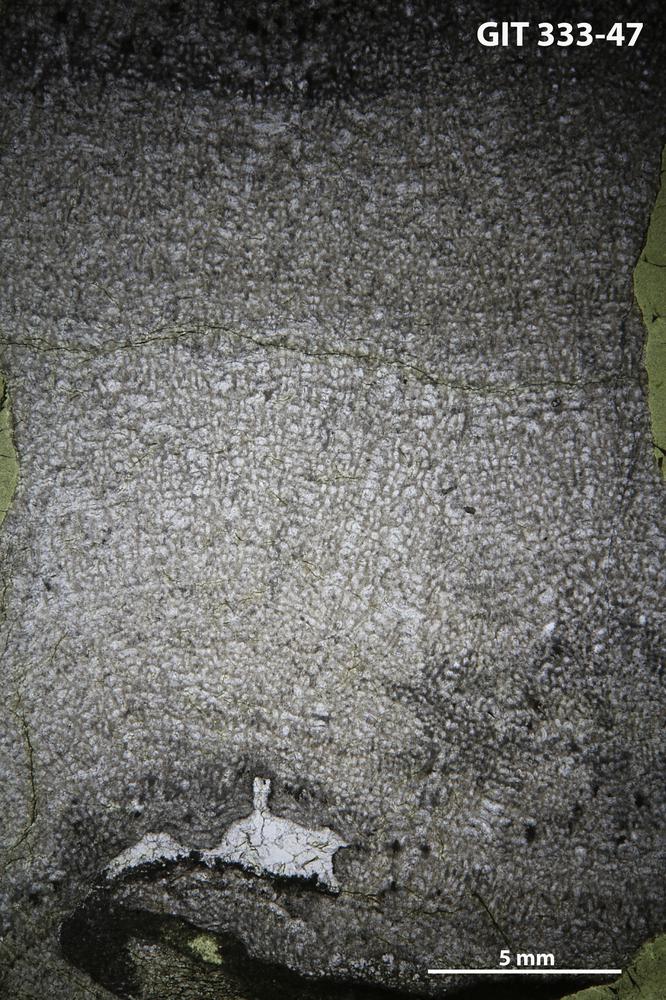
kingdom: Animalia
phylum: Porifera
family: Pseudolabechiidae
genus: Vikingia
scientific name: Vikingia
